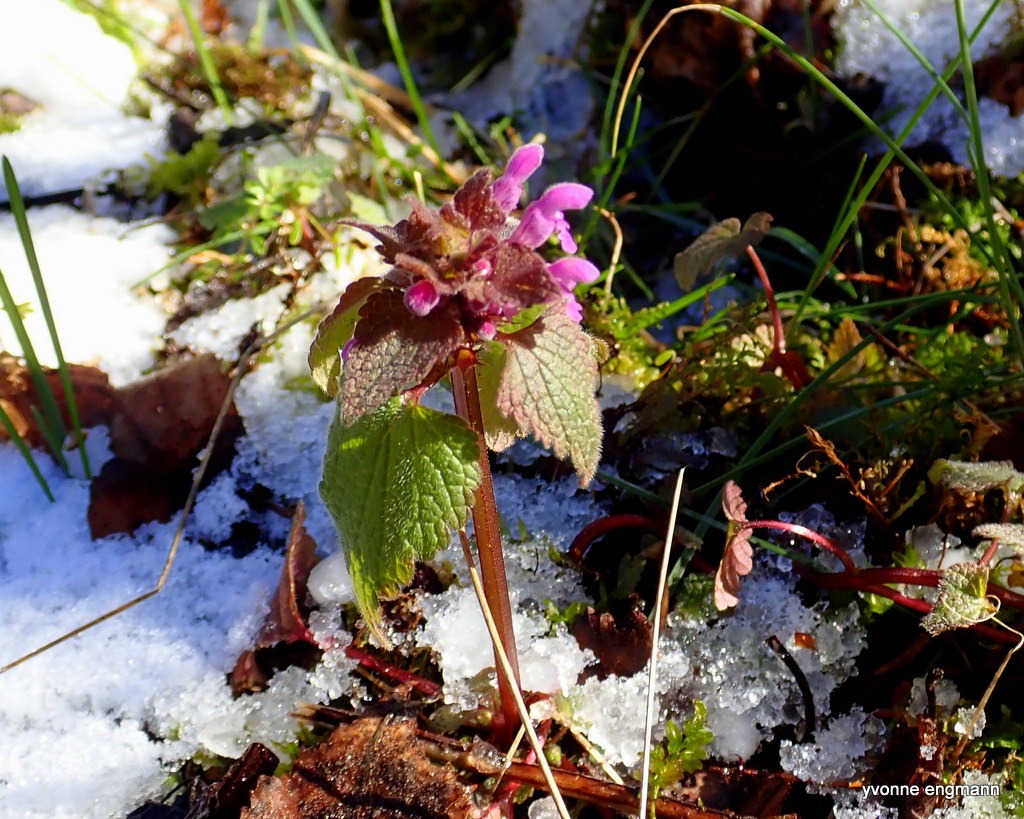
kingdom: Plantae
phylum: Tracheophyta
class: Magnoliopsida
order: Lamiales
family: Lamiaceae
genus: Lamium
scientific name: Lamium purpureum
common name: Rød tvetand
